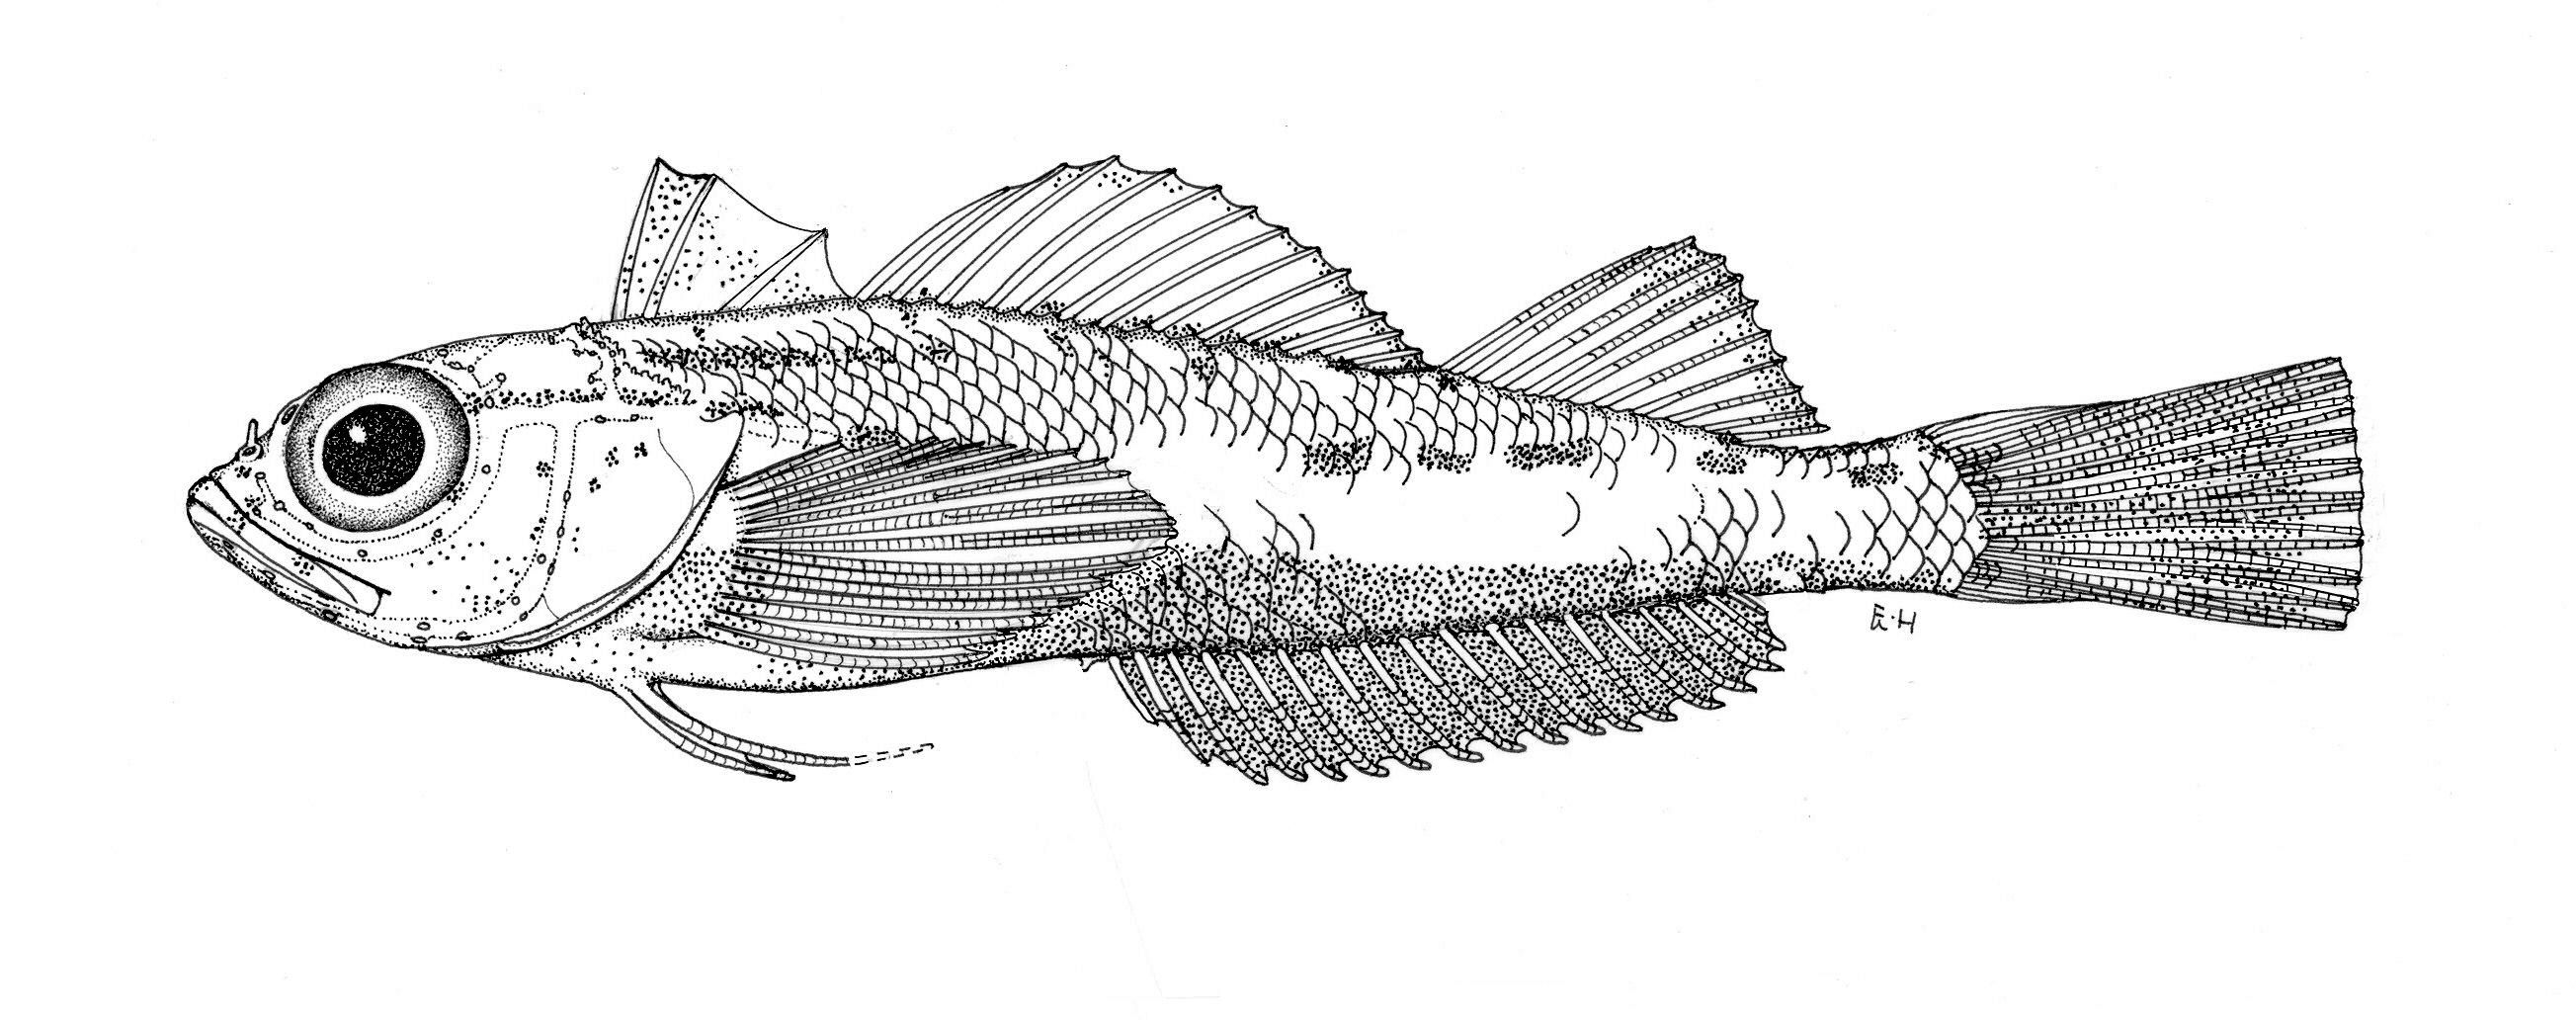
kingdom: Animalia
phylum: Chordata
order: Perciformes
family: Tripterygiidae
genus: Helcogramma
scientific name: Helcogramma maldivensis
